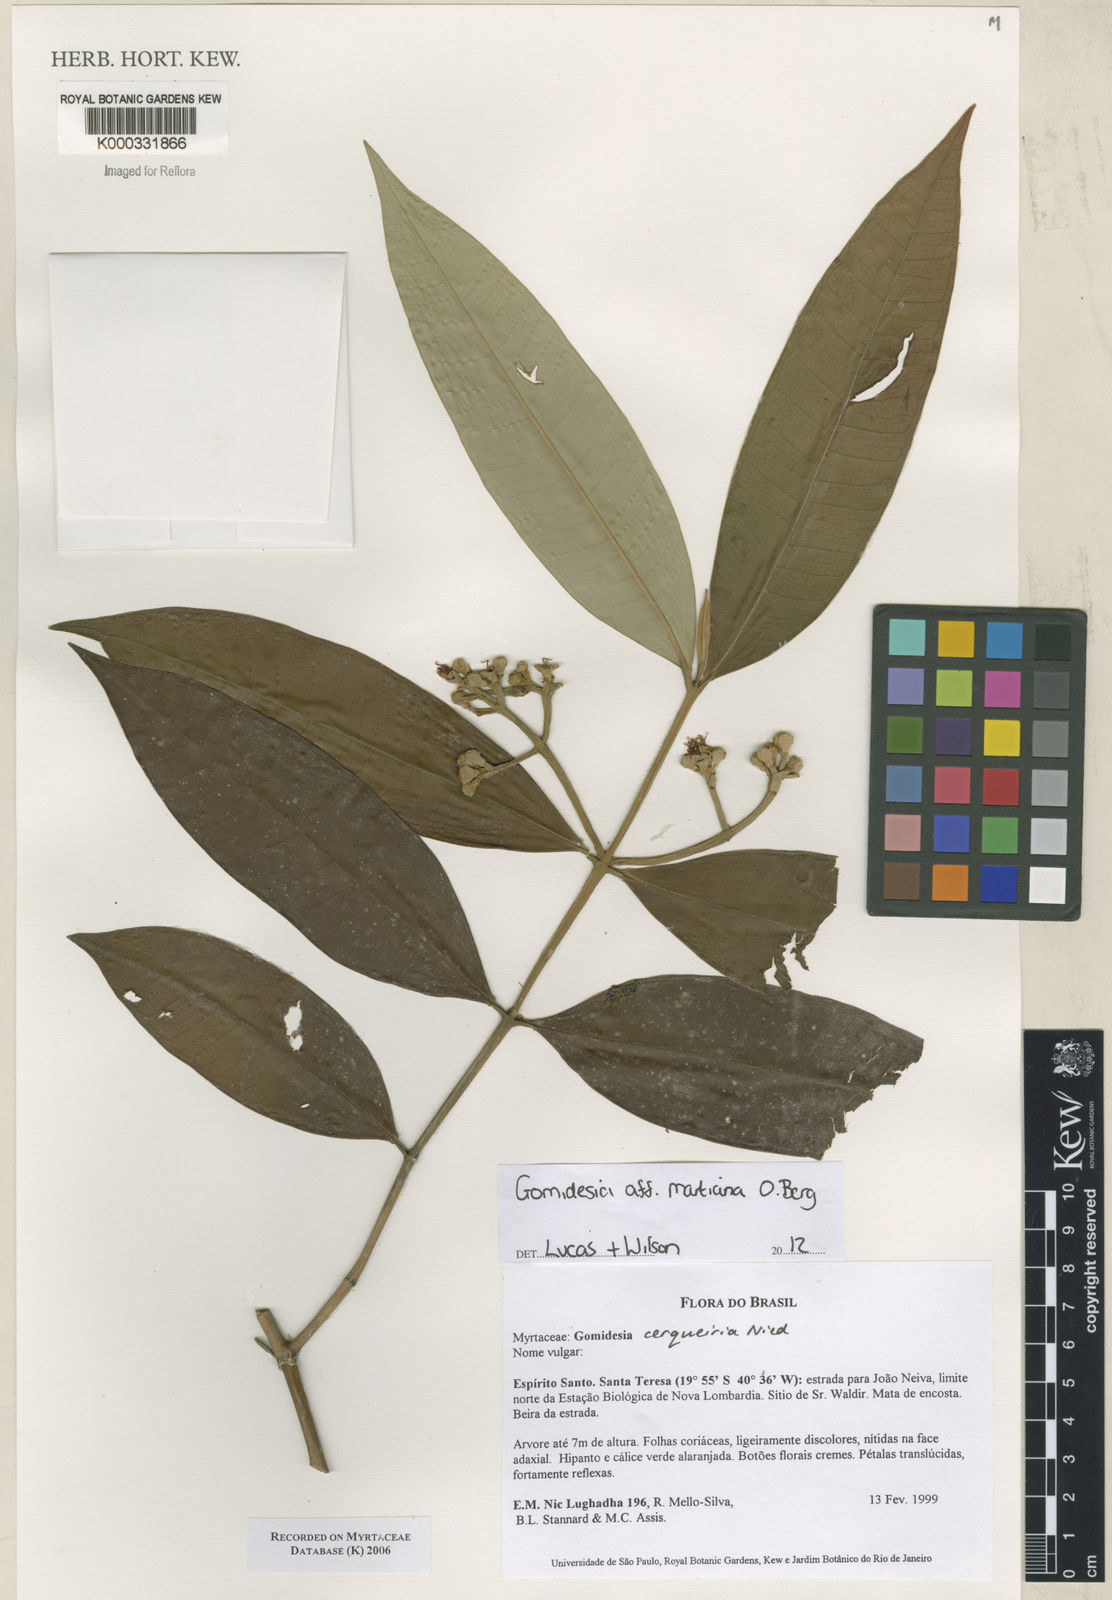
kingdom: Plantae
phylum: Tracheophyta
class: Magnoliopsida
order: Myrtales
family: Myrtaceae
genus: Myrcia
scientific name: Myrcia cerqueiria
